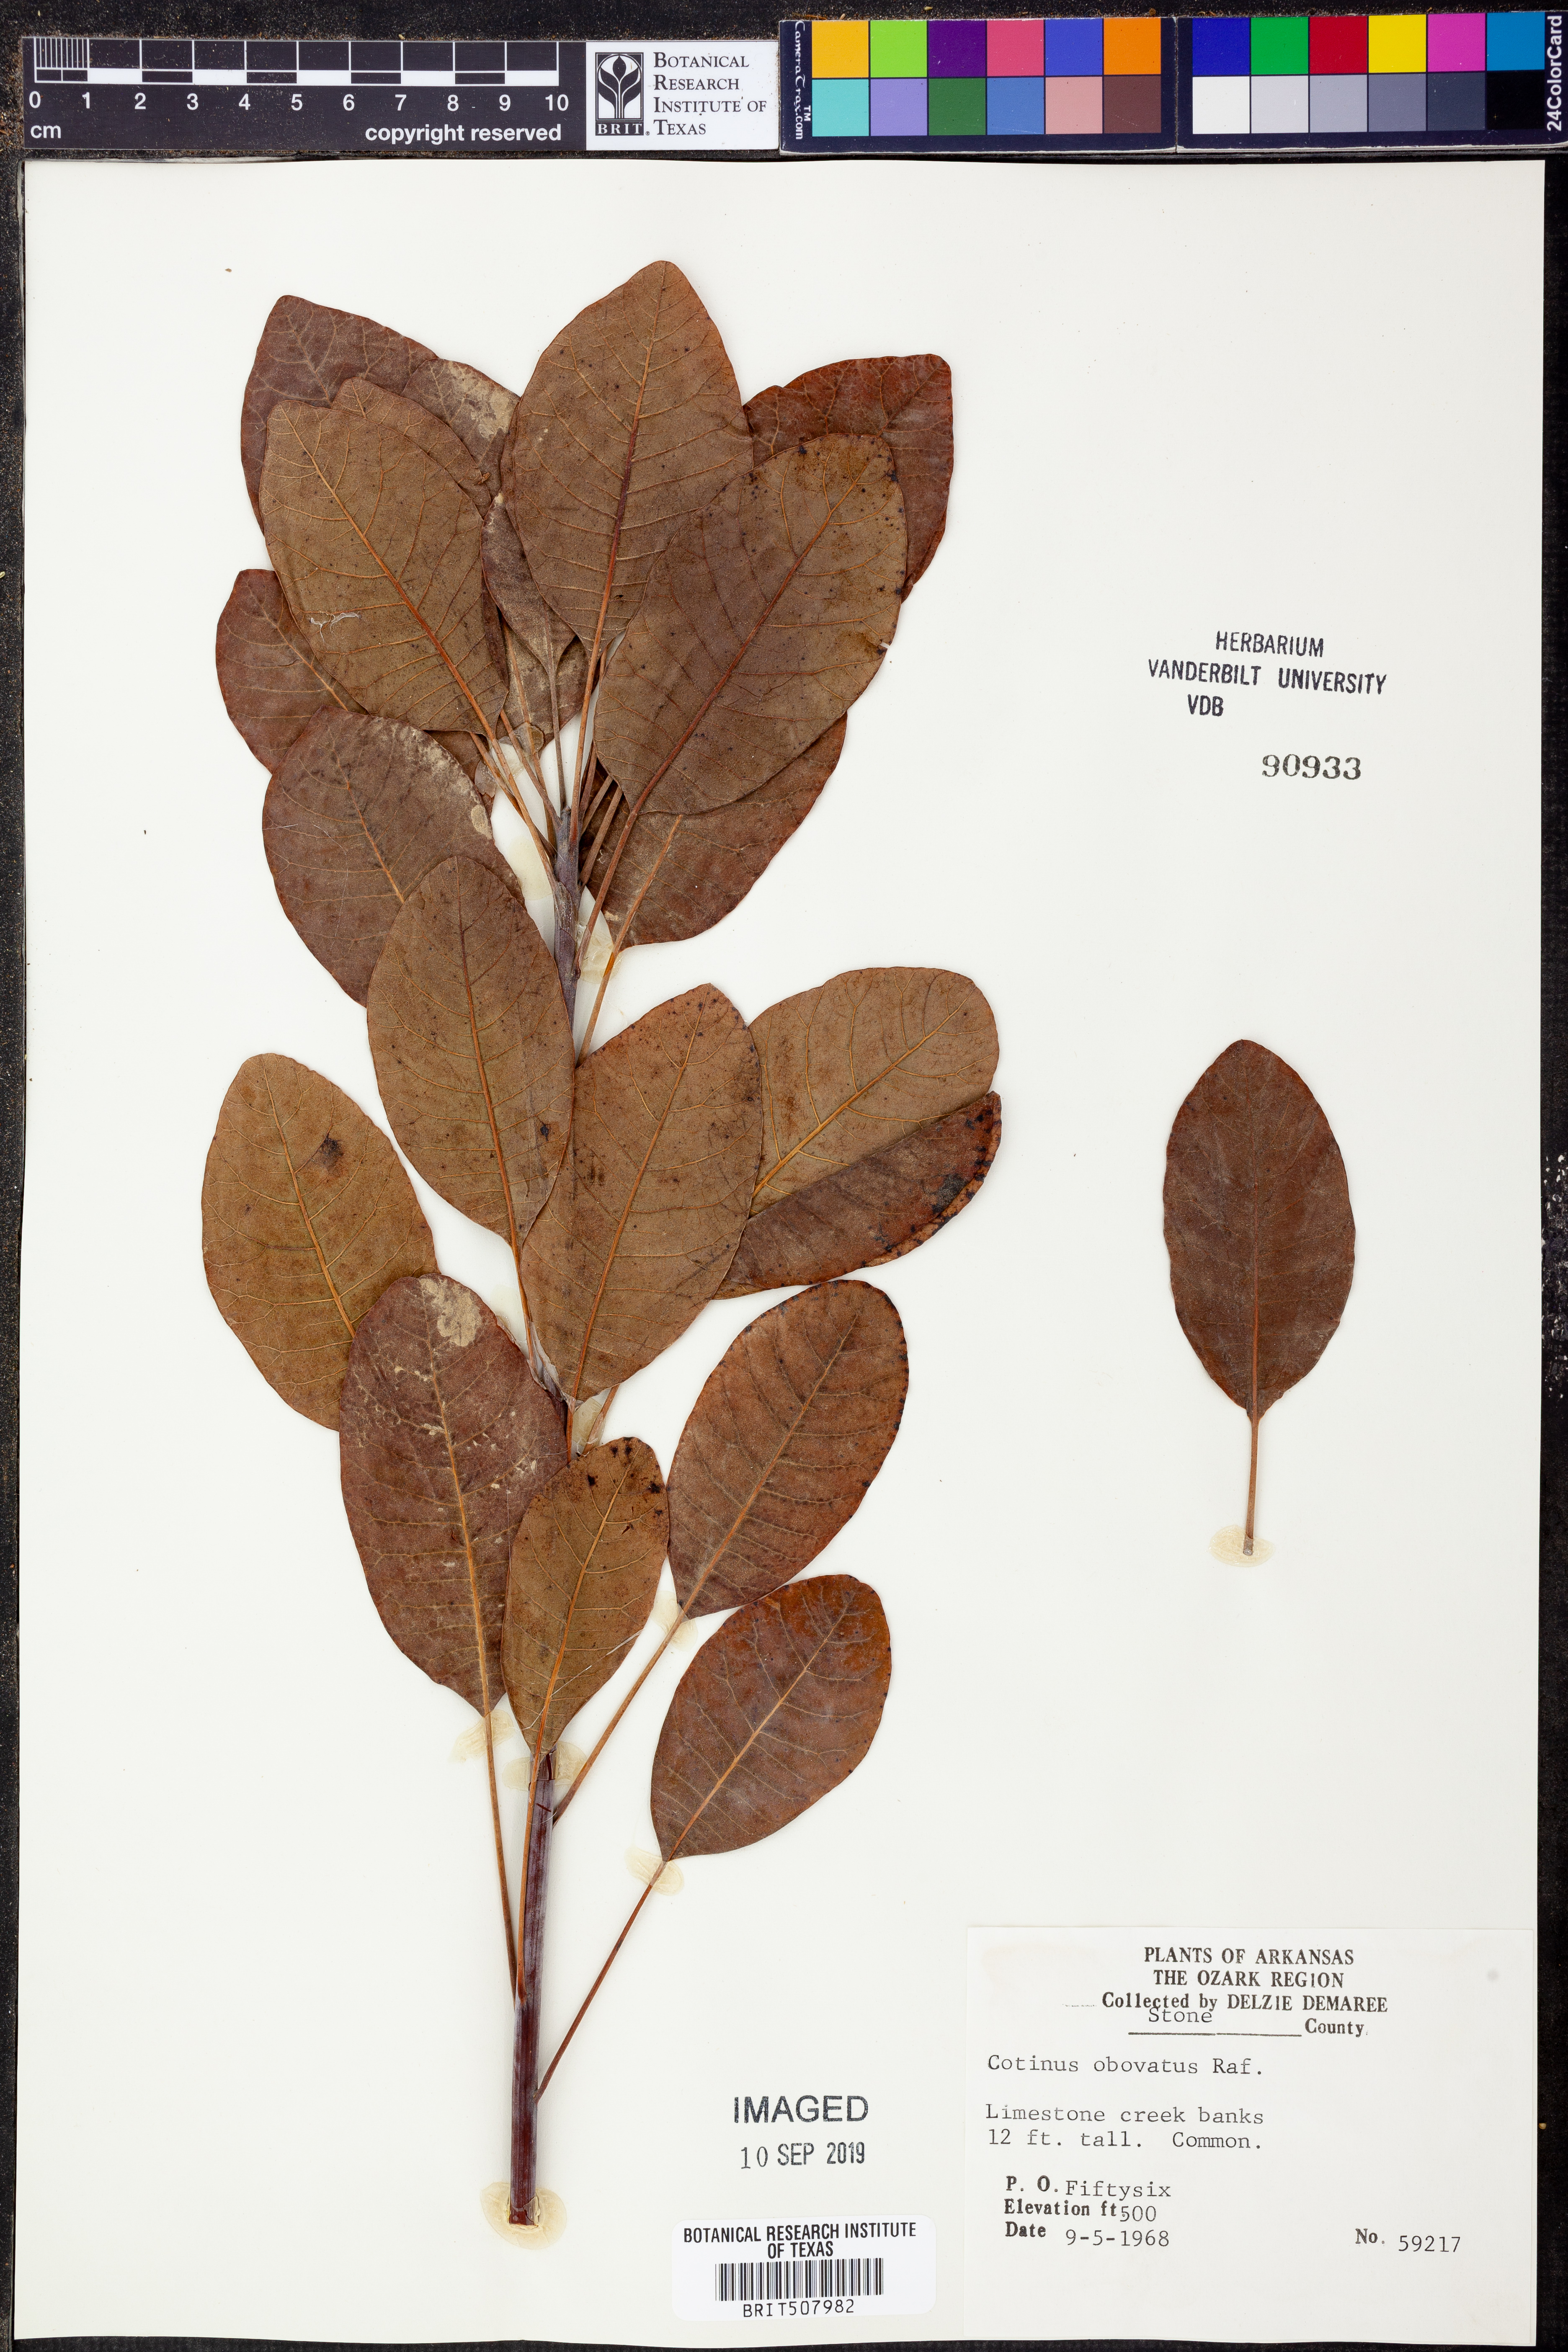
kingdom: Plantae
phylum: Tracheophyta
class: Magnoliopsida
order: Sapindales
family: Anacardiaceae
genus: Cotinus
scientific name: Cotinus obovatus
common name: Chittamwood
